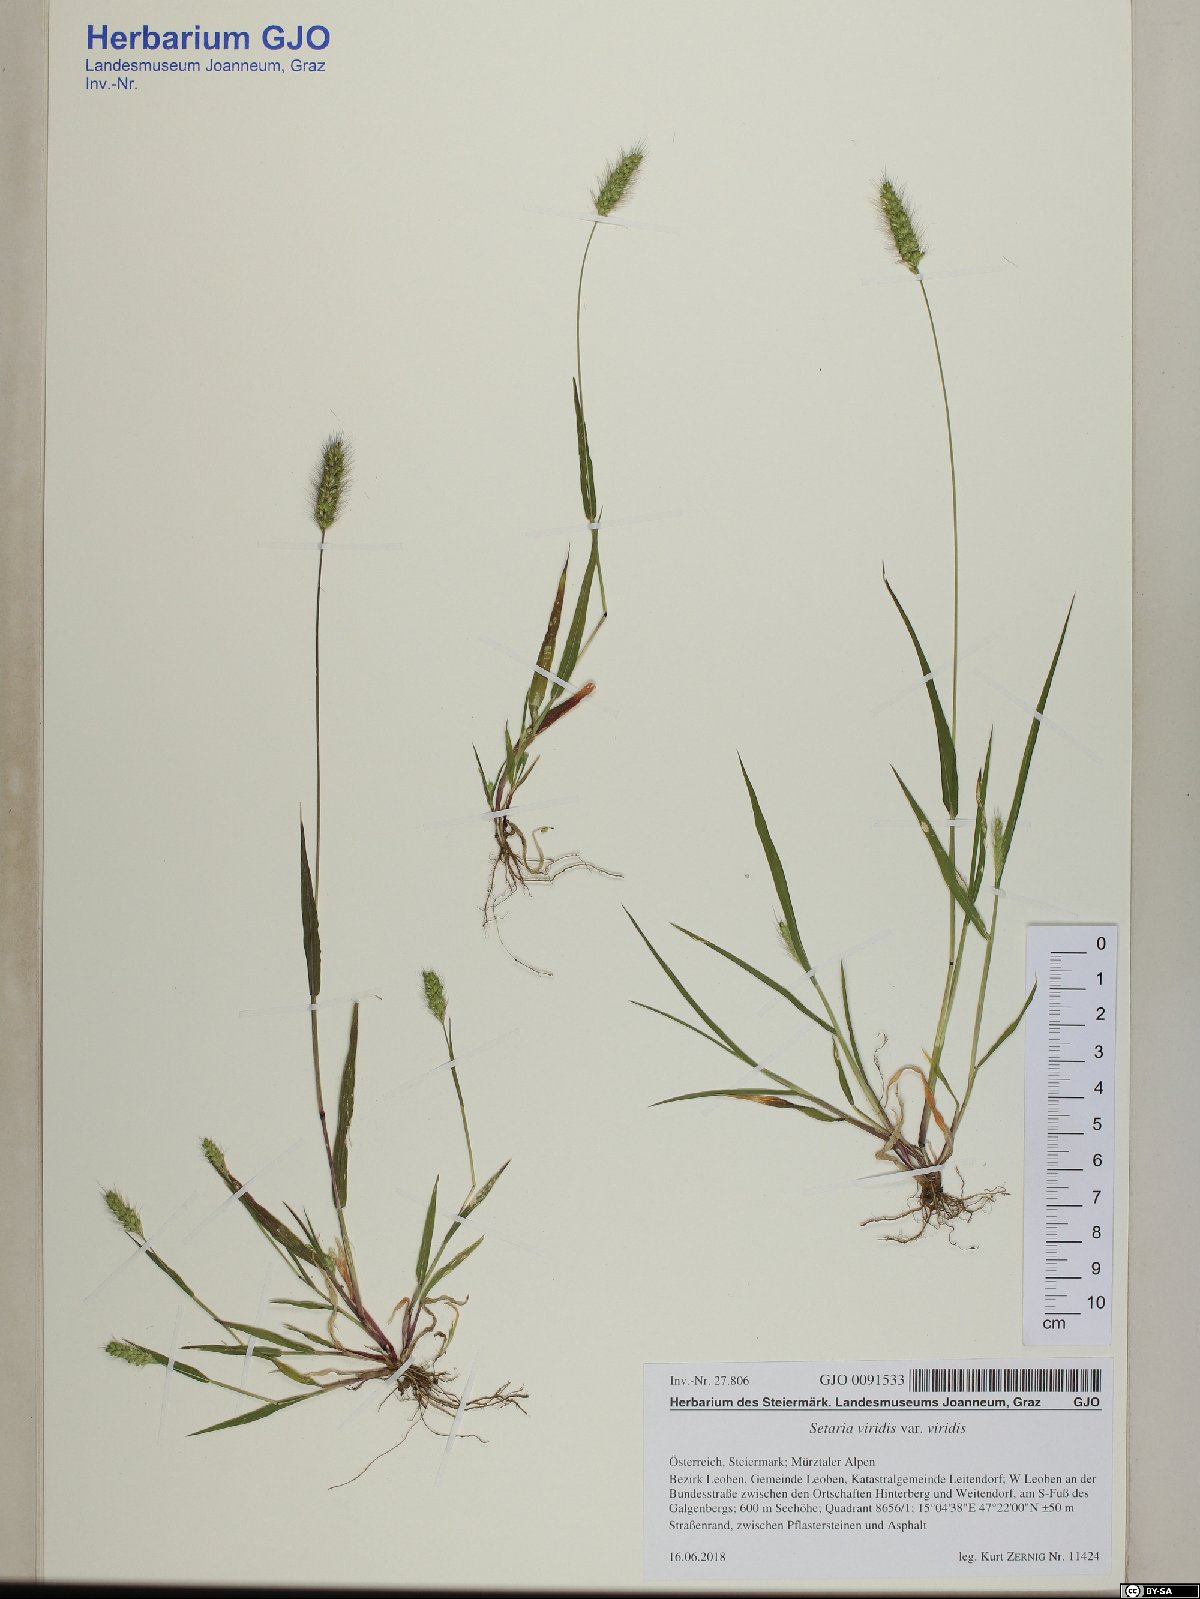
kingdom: Plantae
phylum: Tracheophyta
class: Liliopsida
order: Poales
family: Poaceae
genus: Setaria
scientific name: Setaria viridis
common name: Green bristlegrass
